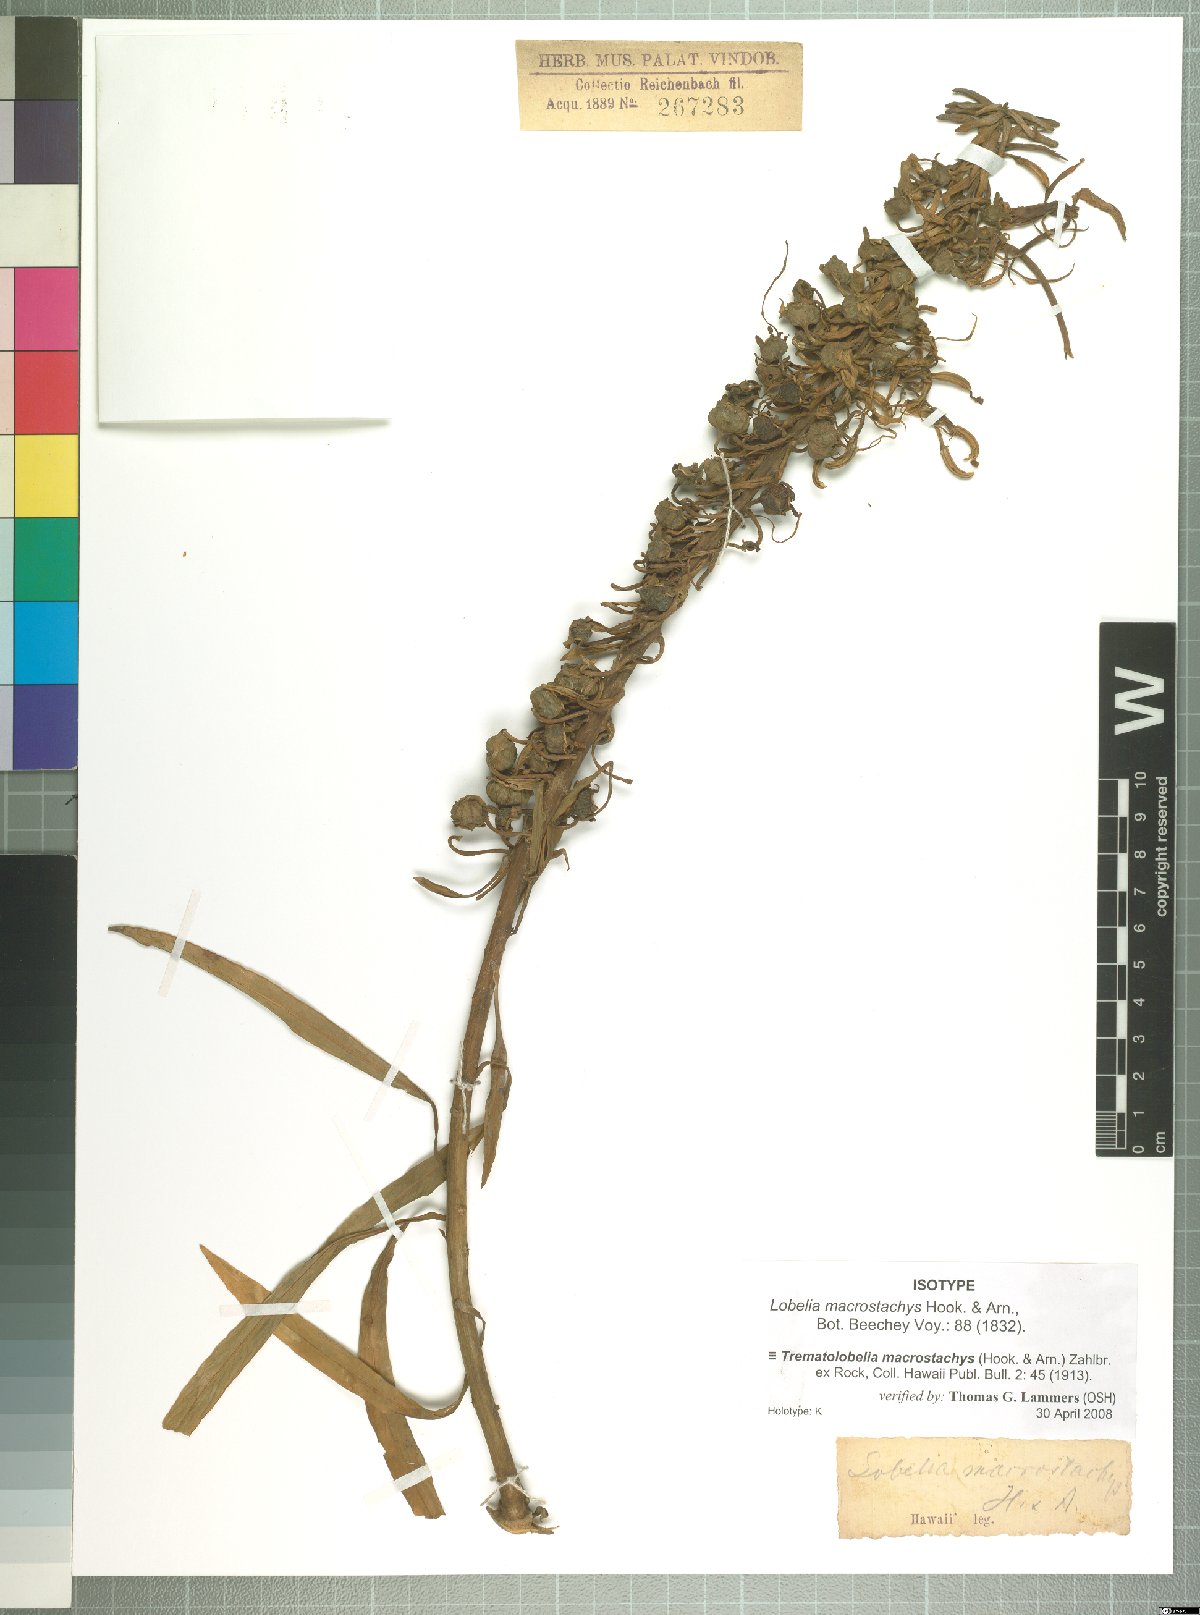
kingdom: Plantae
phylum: Tracheophyta
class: Magnoliopsida
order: Asterales
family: Campanulaceae
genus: Trematolobelia
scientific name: Trematolobelia macrostachys
